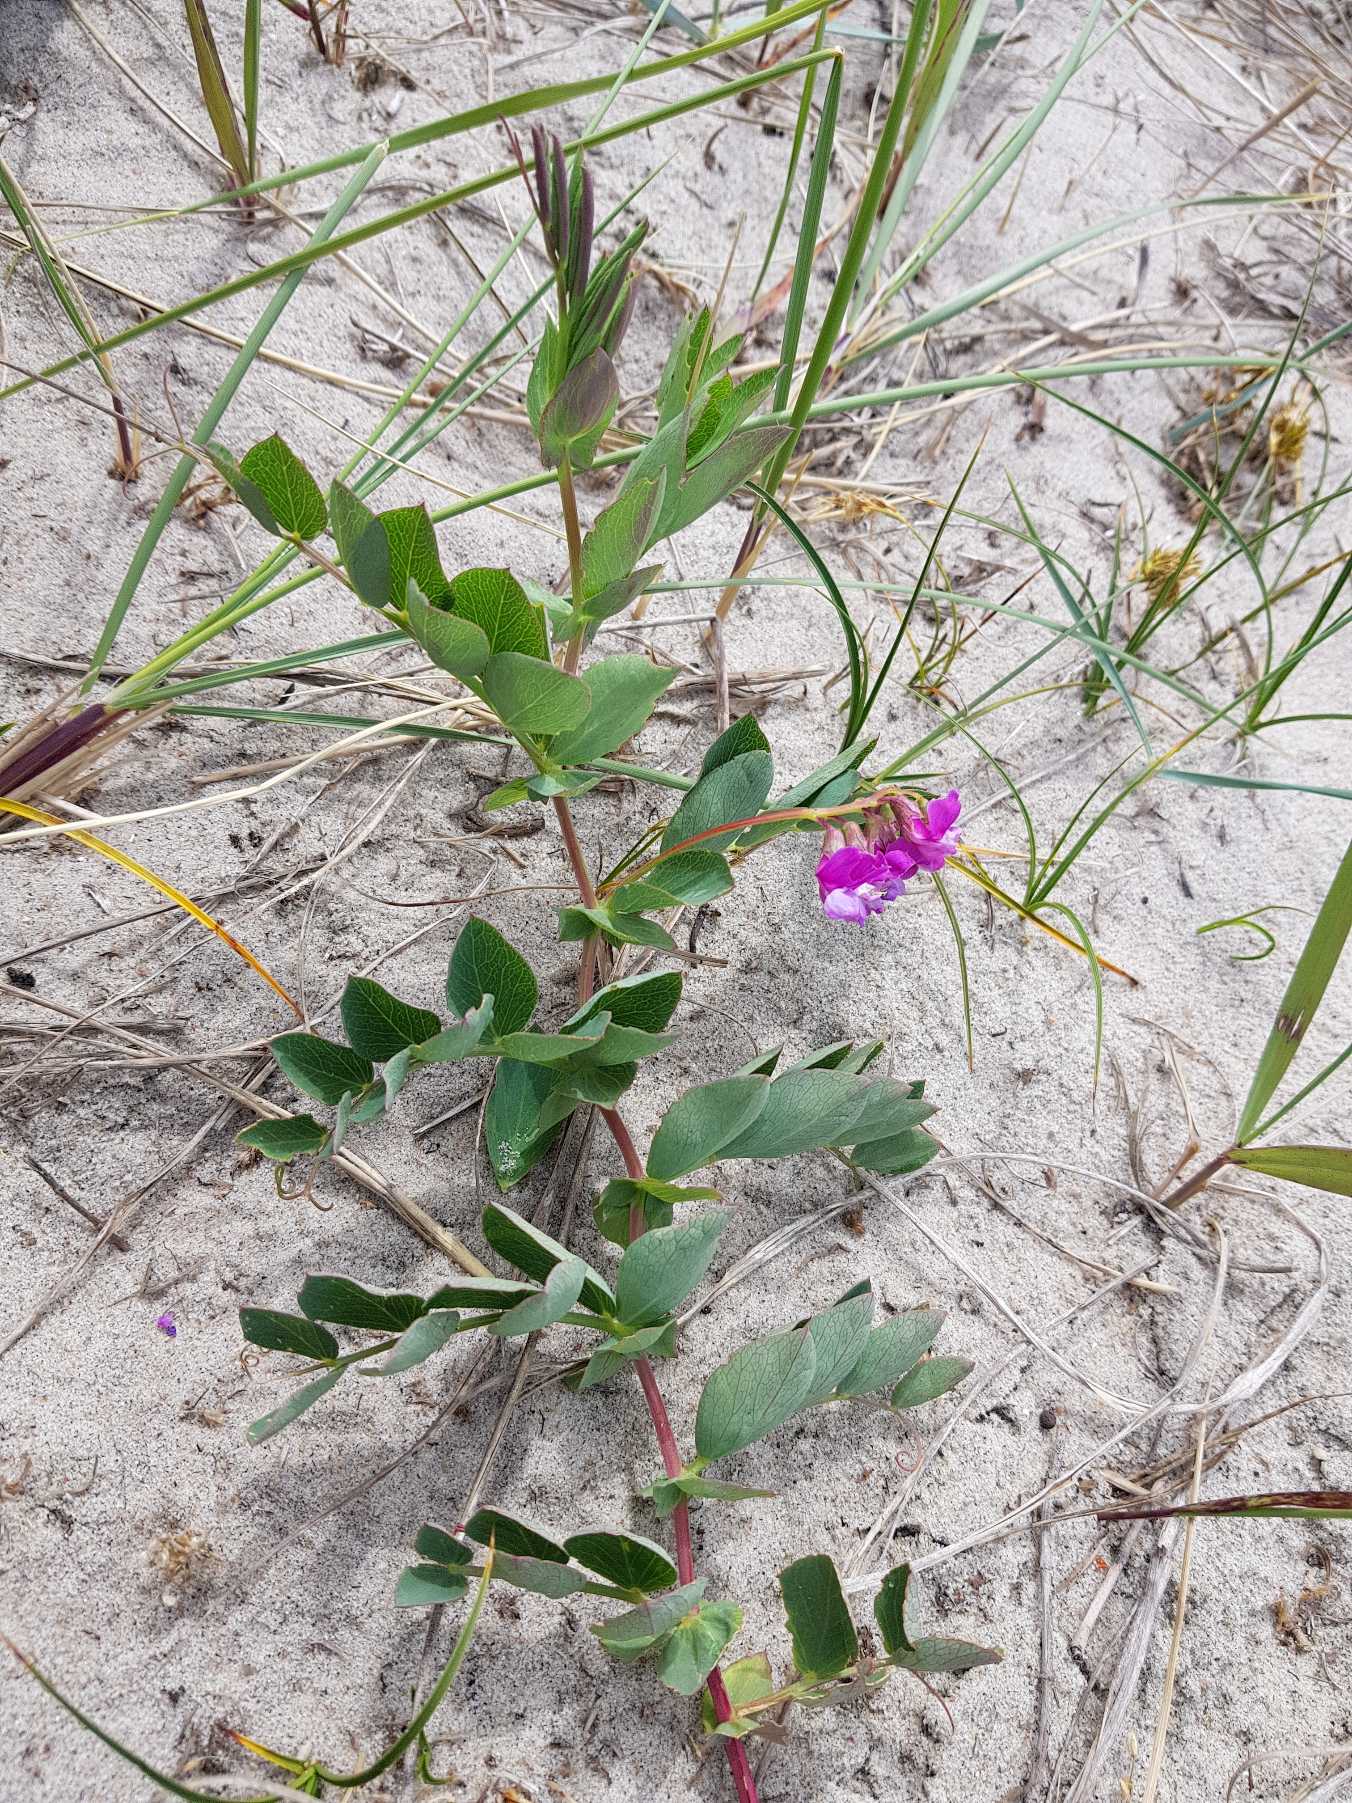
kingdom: Plantae
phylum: Tracheophyta
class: Magnoliopsida
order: Fabales
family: Fabaceae
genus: Lathyrus
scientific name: Lathyrus japonicus
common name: Strand-fladbælg
